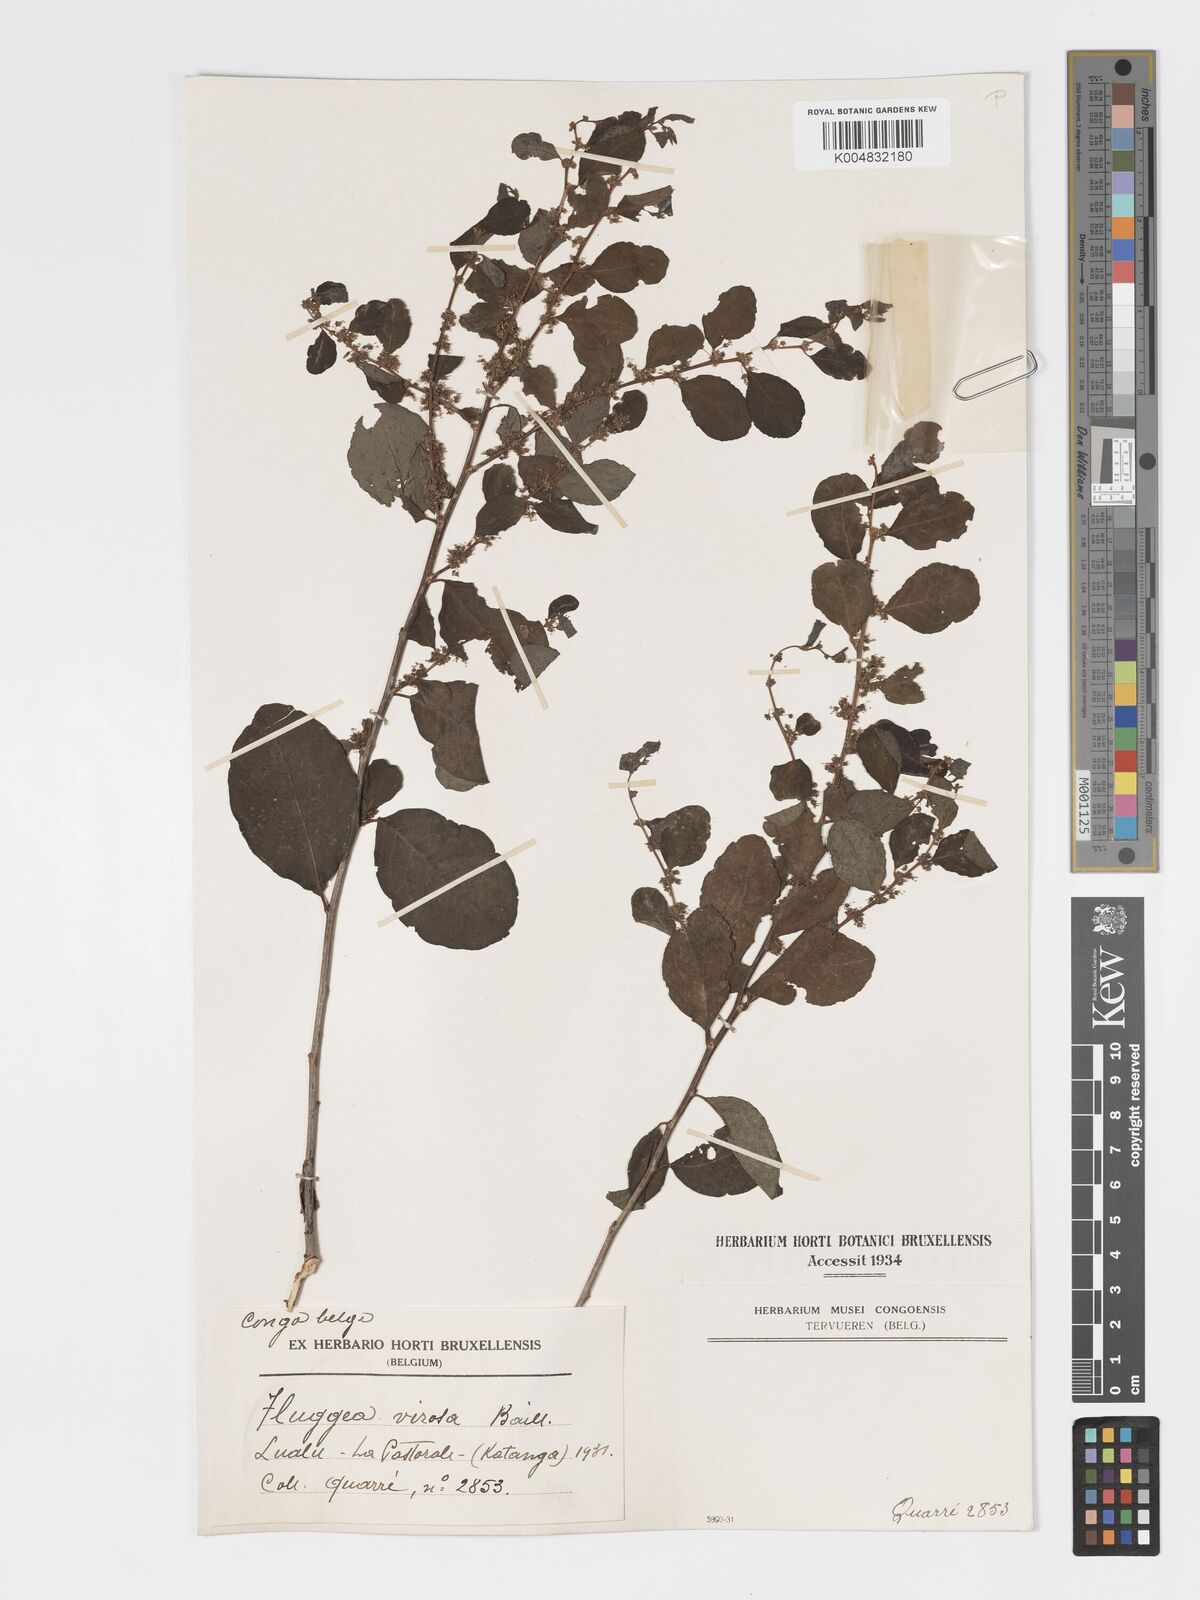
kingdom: Plantae
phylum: Tracheophyta
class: Magnoliopsida
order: Malpighiales
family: Phyllanthaceae
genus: Flueggea
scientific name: Flueggea virosa
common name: Common bushweed
